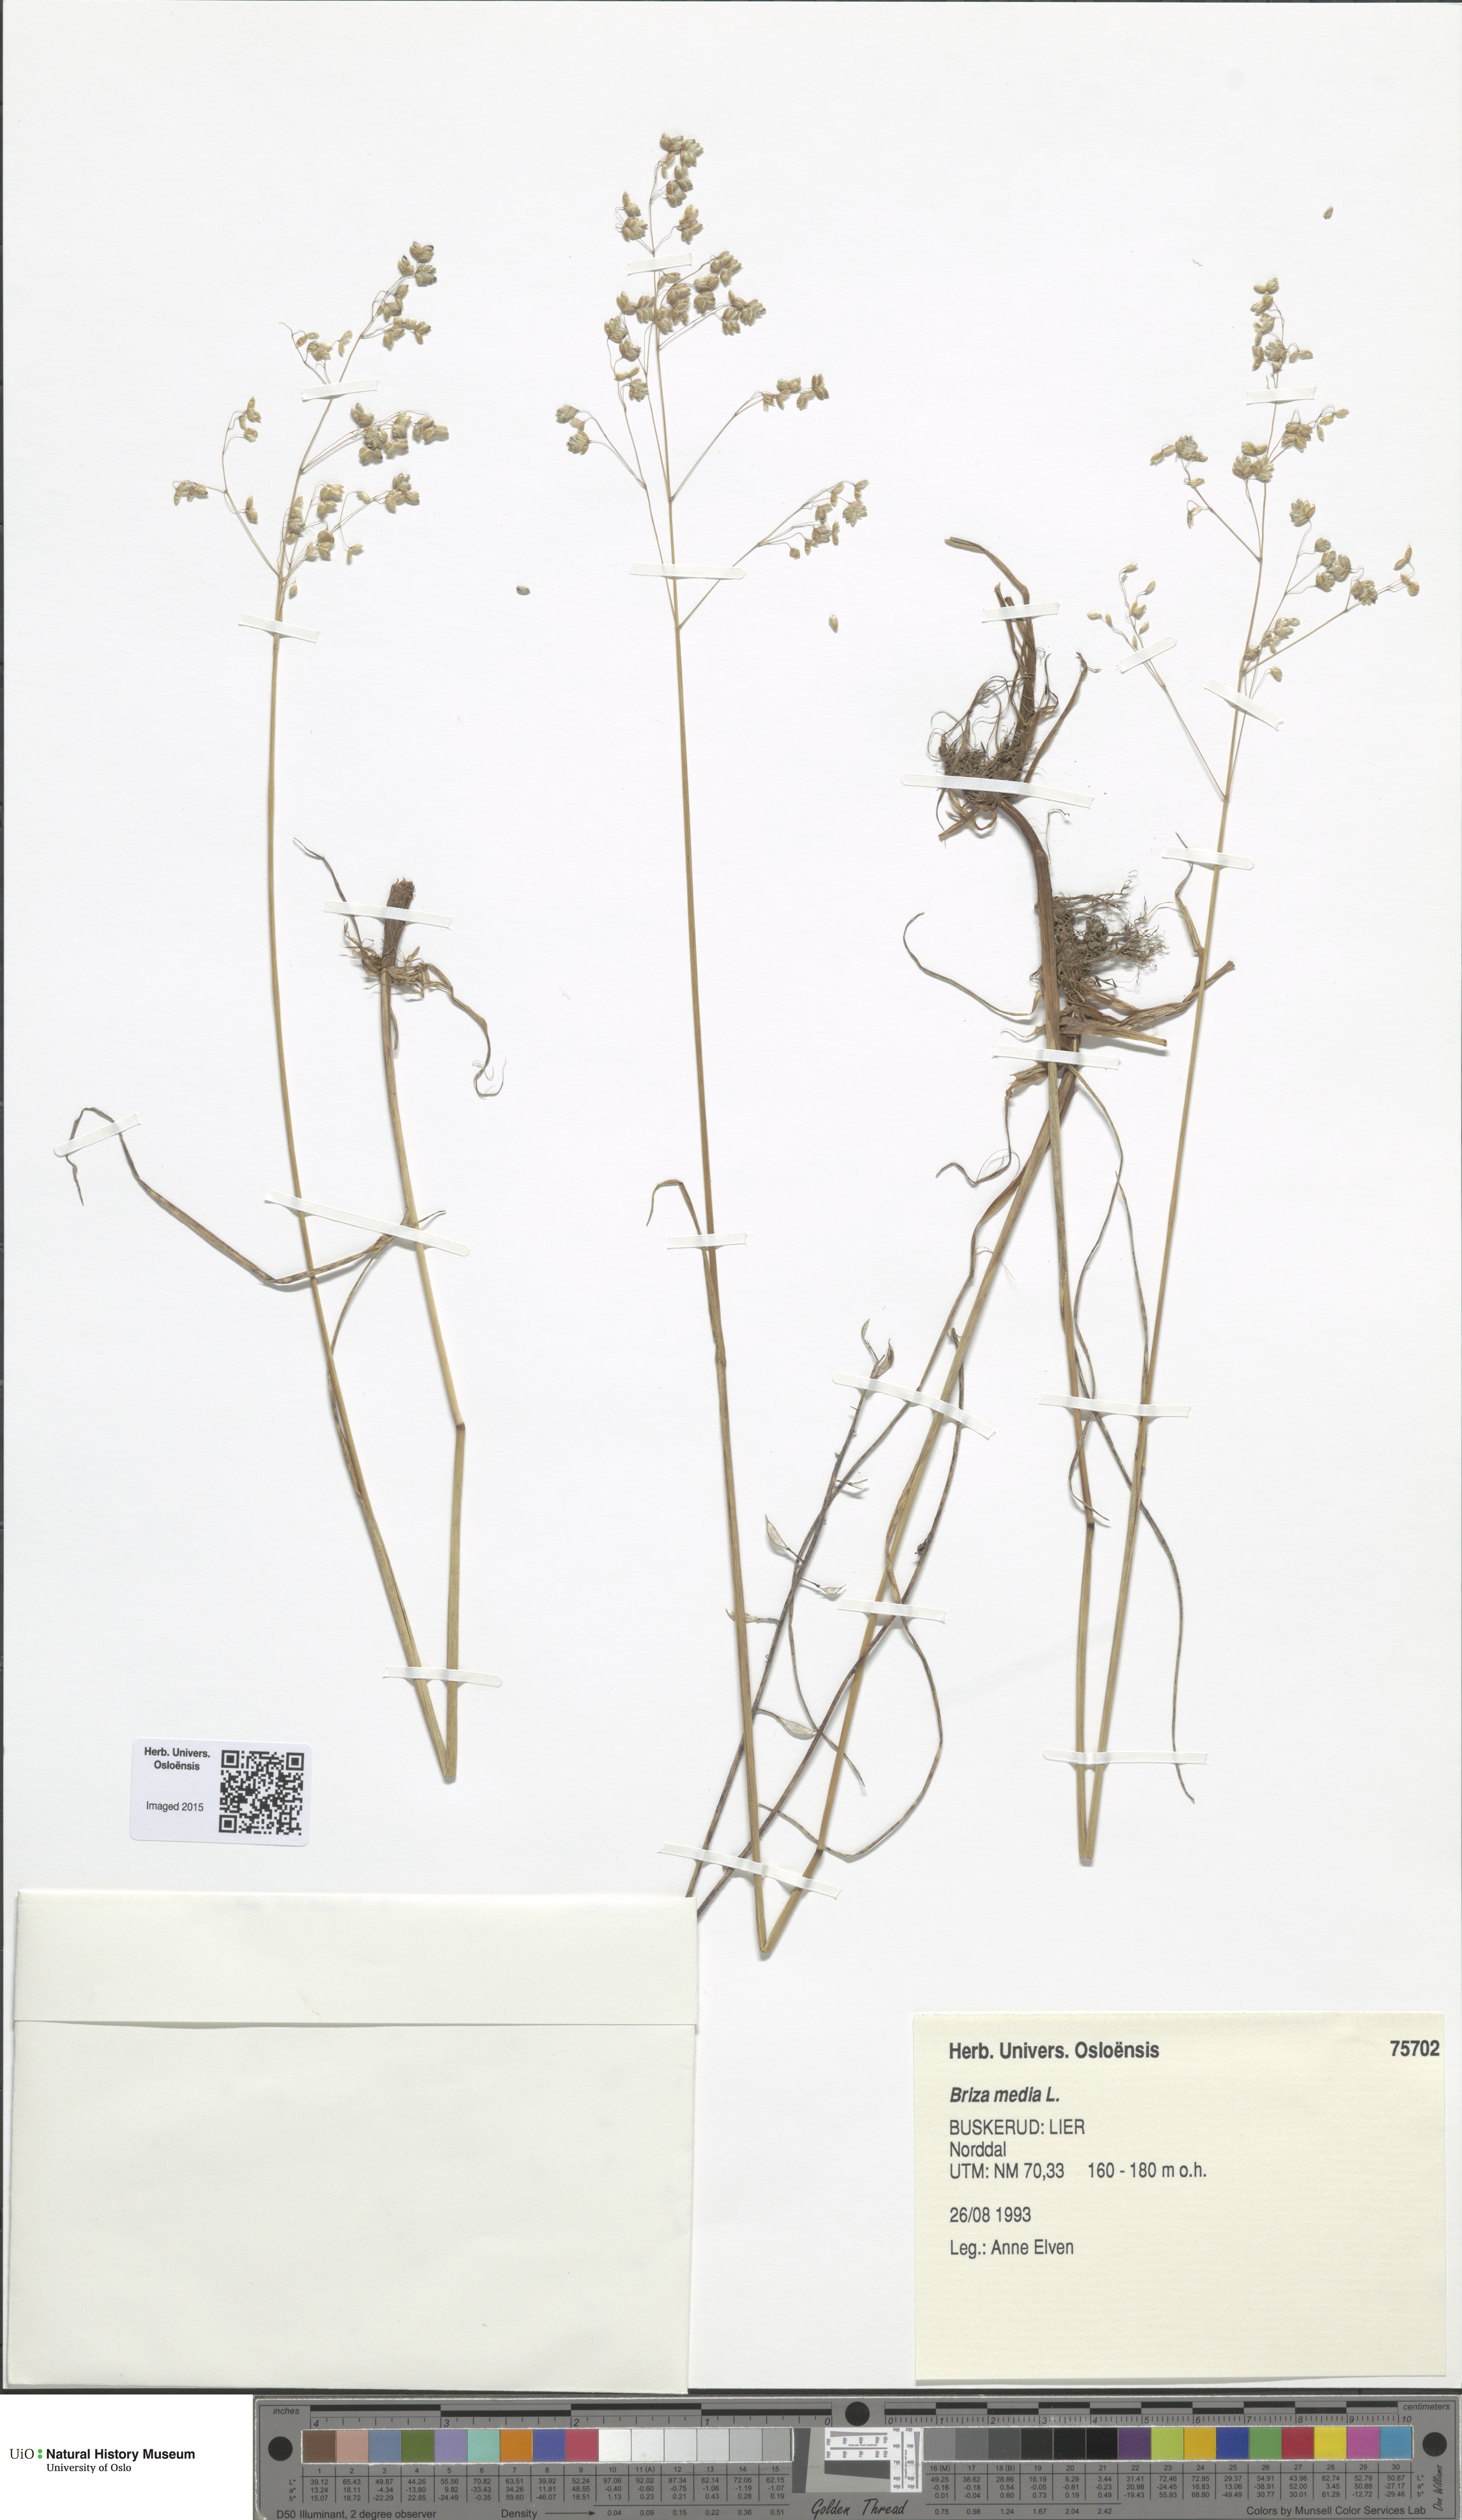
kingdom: Plantae
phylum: Tracheophyta
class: Liliopsida
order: Poales
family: Poaceae
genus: Briza
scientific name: Briza media
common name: Quaking grass
